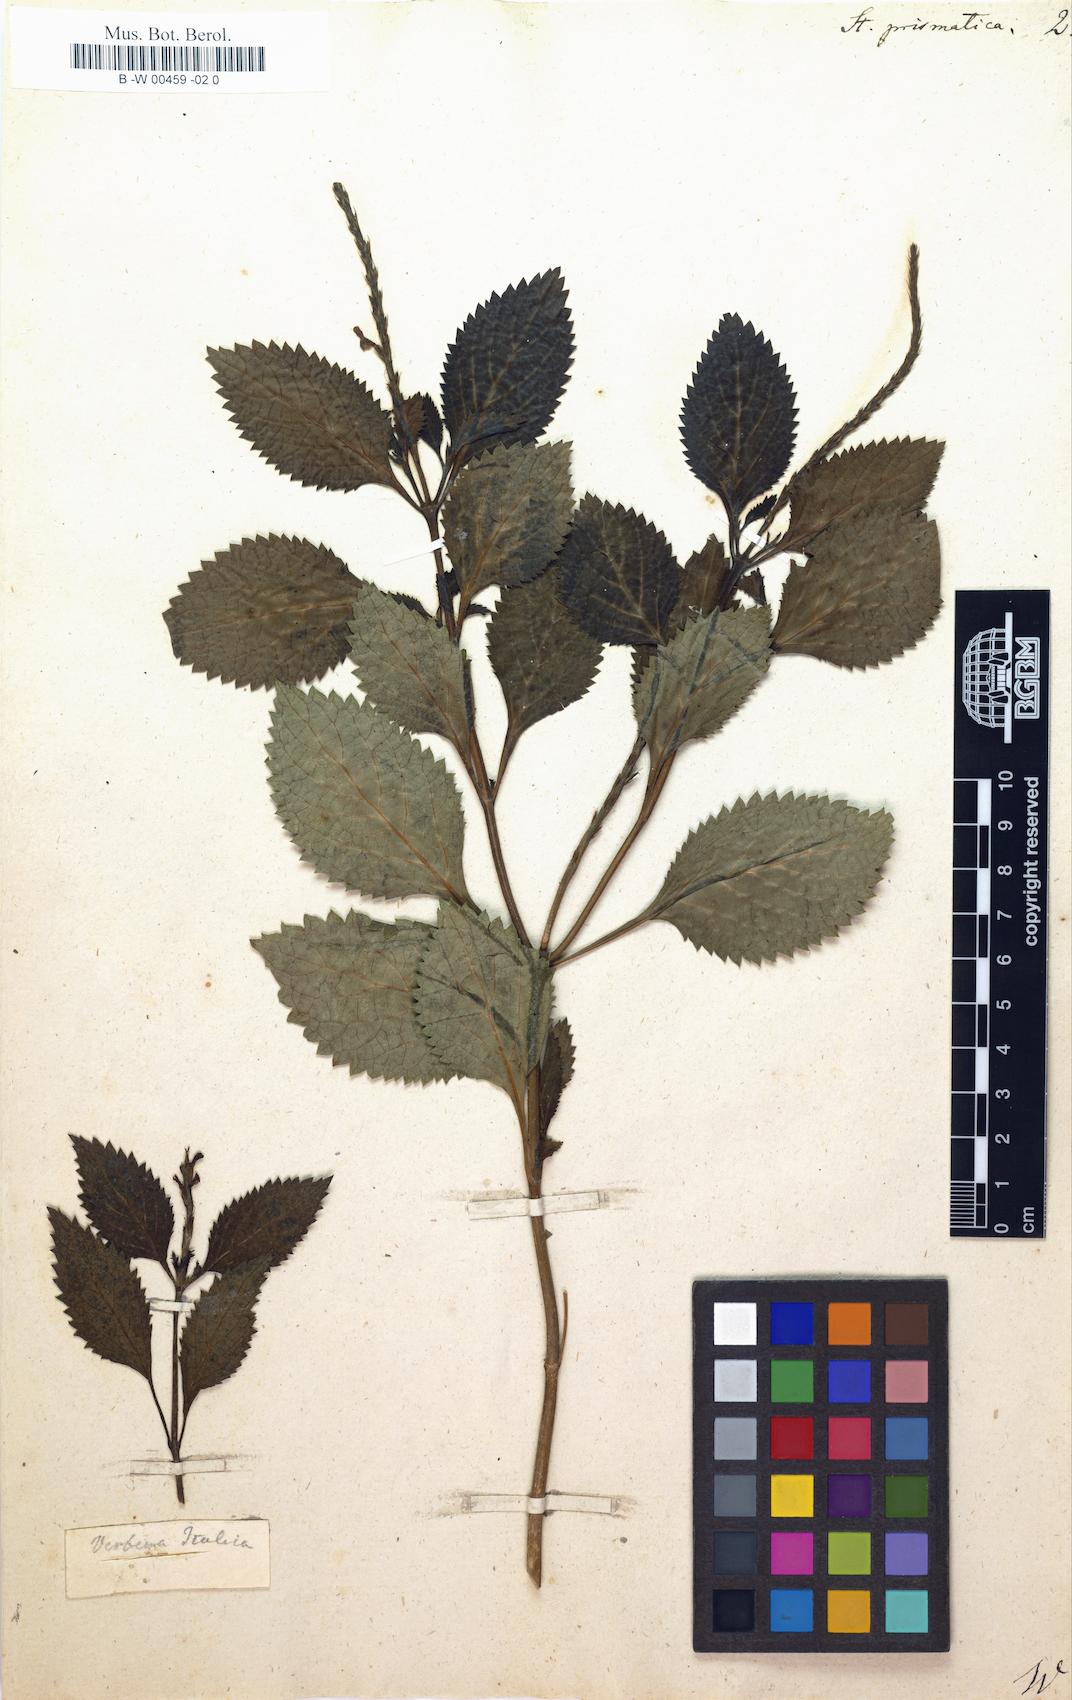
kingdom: Plantae
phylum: Tracheophyta
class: Magnoliopsida
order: Lamiales
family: Verbenaceae
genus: Bouchea
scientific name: Bouchea prismatica
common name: Vervine
